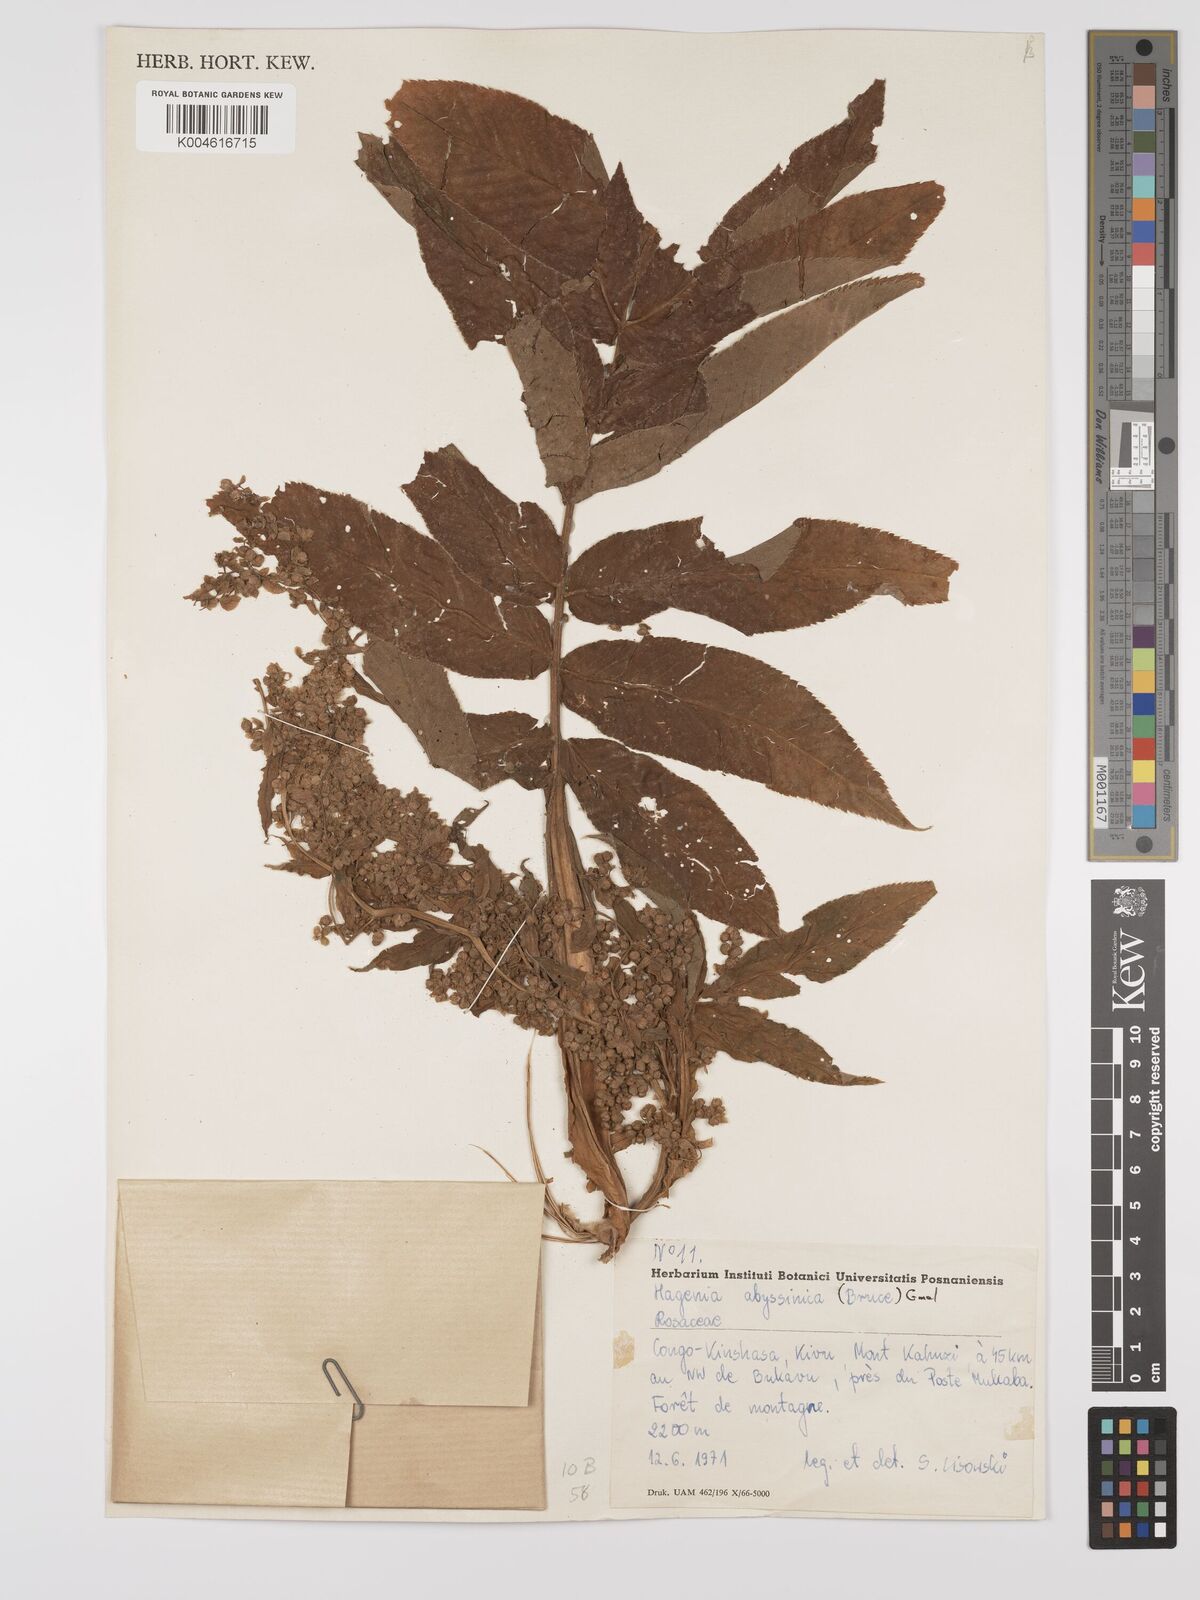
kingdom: Plantae
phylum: Tracheophyta
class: Magnoliopsida
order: Rosales
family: Rosaceae
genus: Hagenia
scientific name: Hagenia abyssinica
